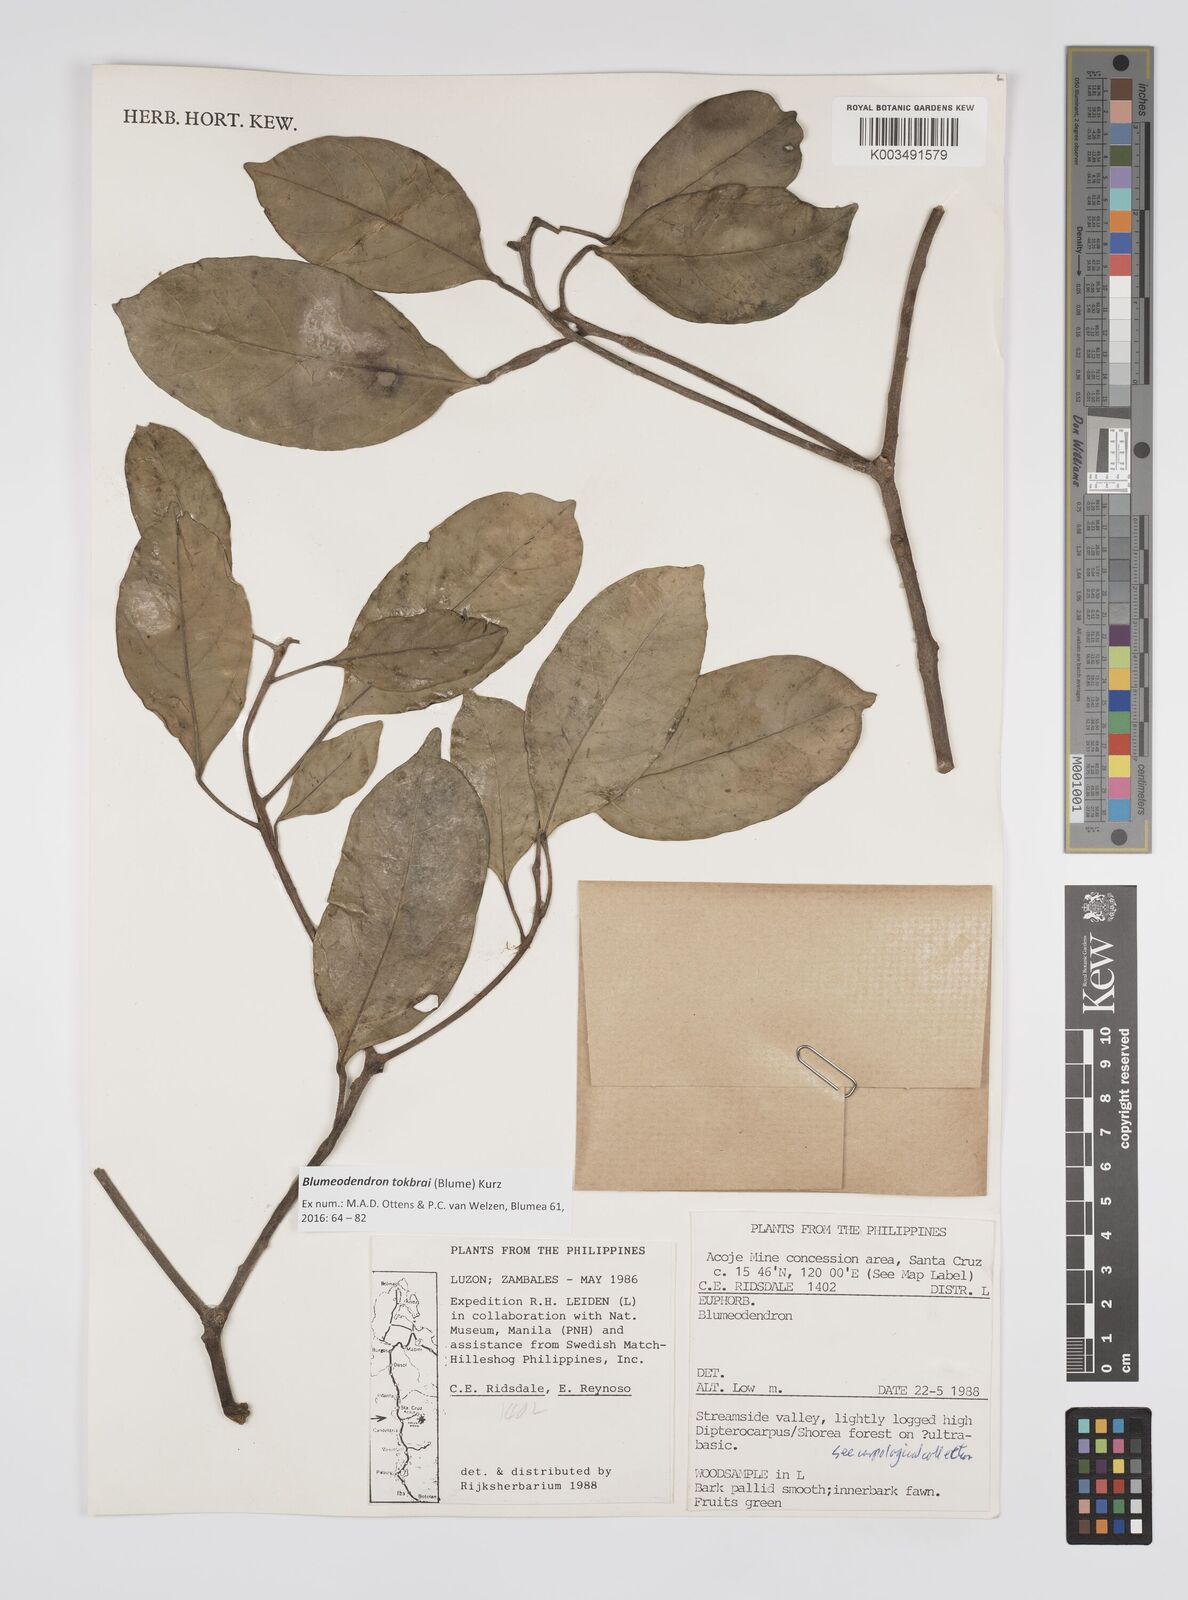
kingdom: Plantae
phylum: Tracheophyta
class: Magnoliopsida
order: Malpighiales
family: Euphorbiaceae
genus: Blumeodendron
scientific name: Blumeodendron tokbrai
